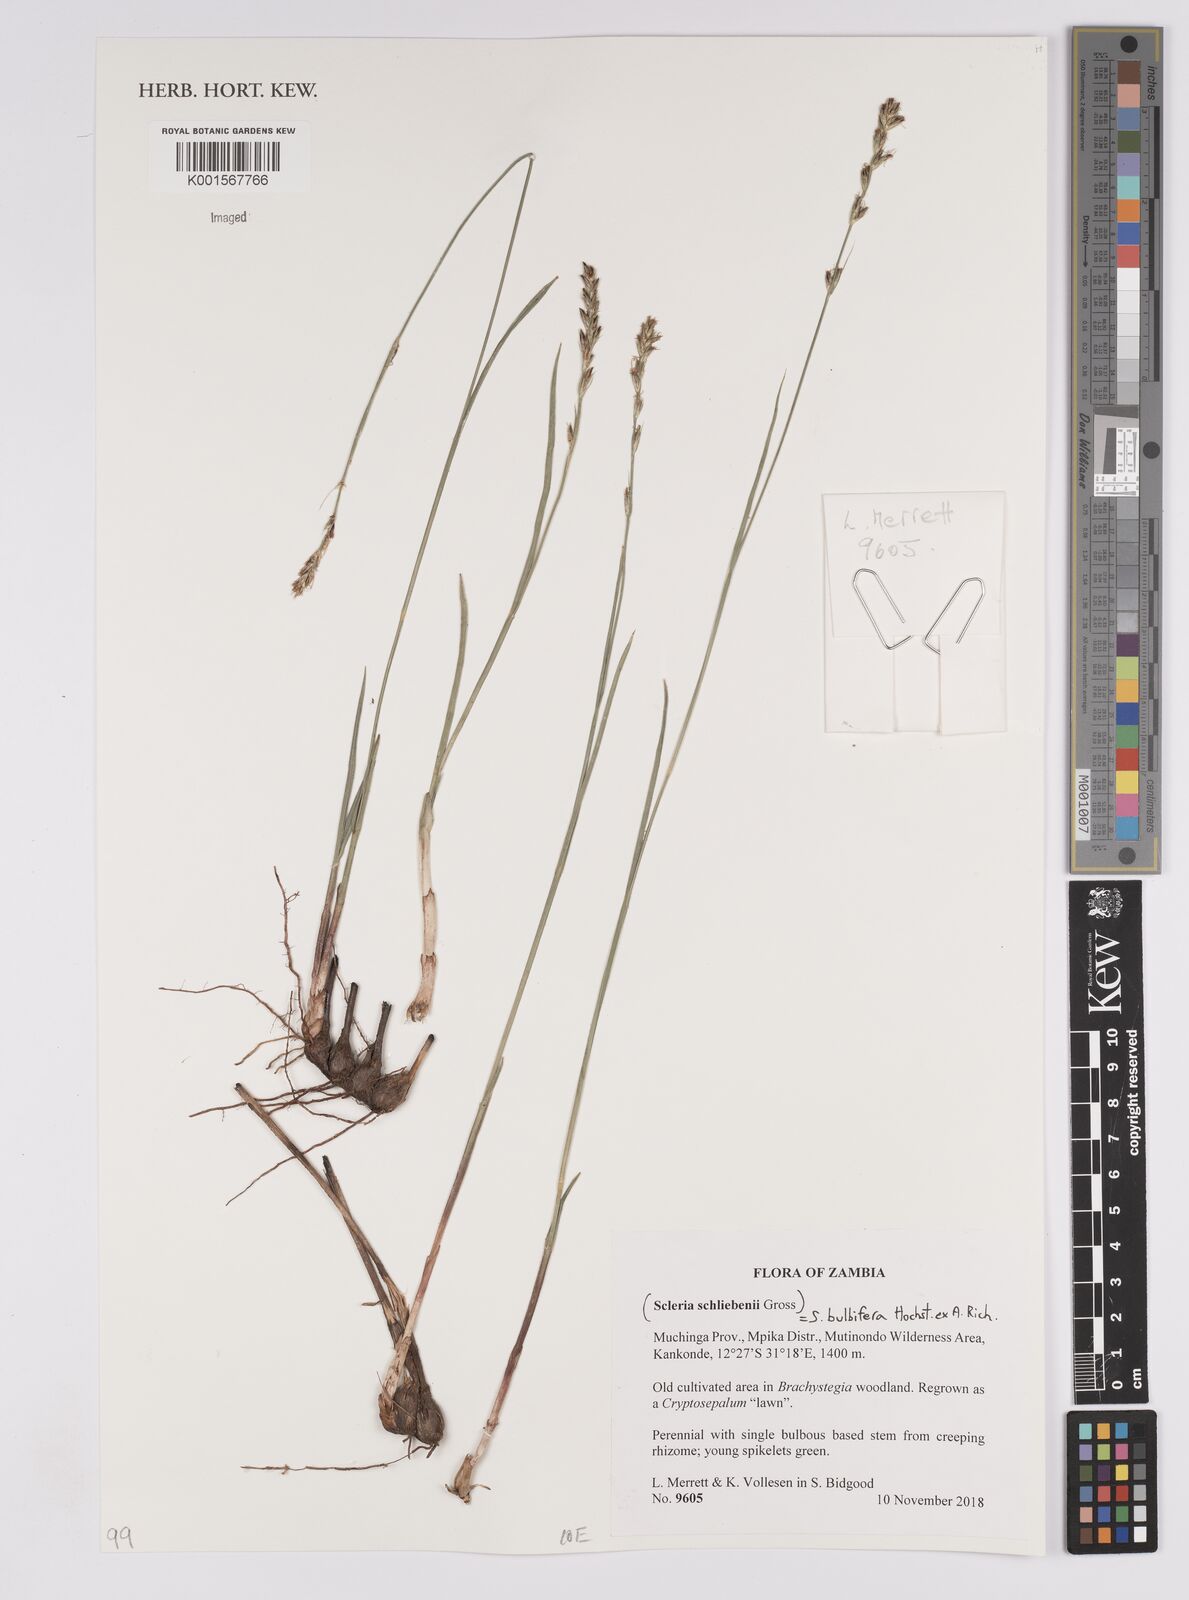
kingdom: Plantae
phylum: Tracheophyta
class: Liliopsida
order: Poales
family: Cyperaceae
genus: Scleria
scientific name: Scleria bulbifera
